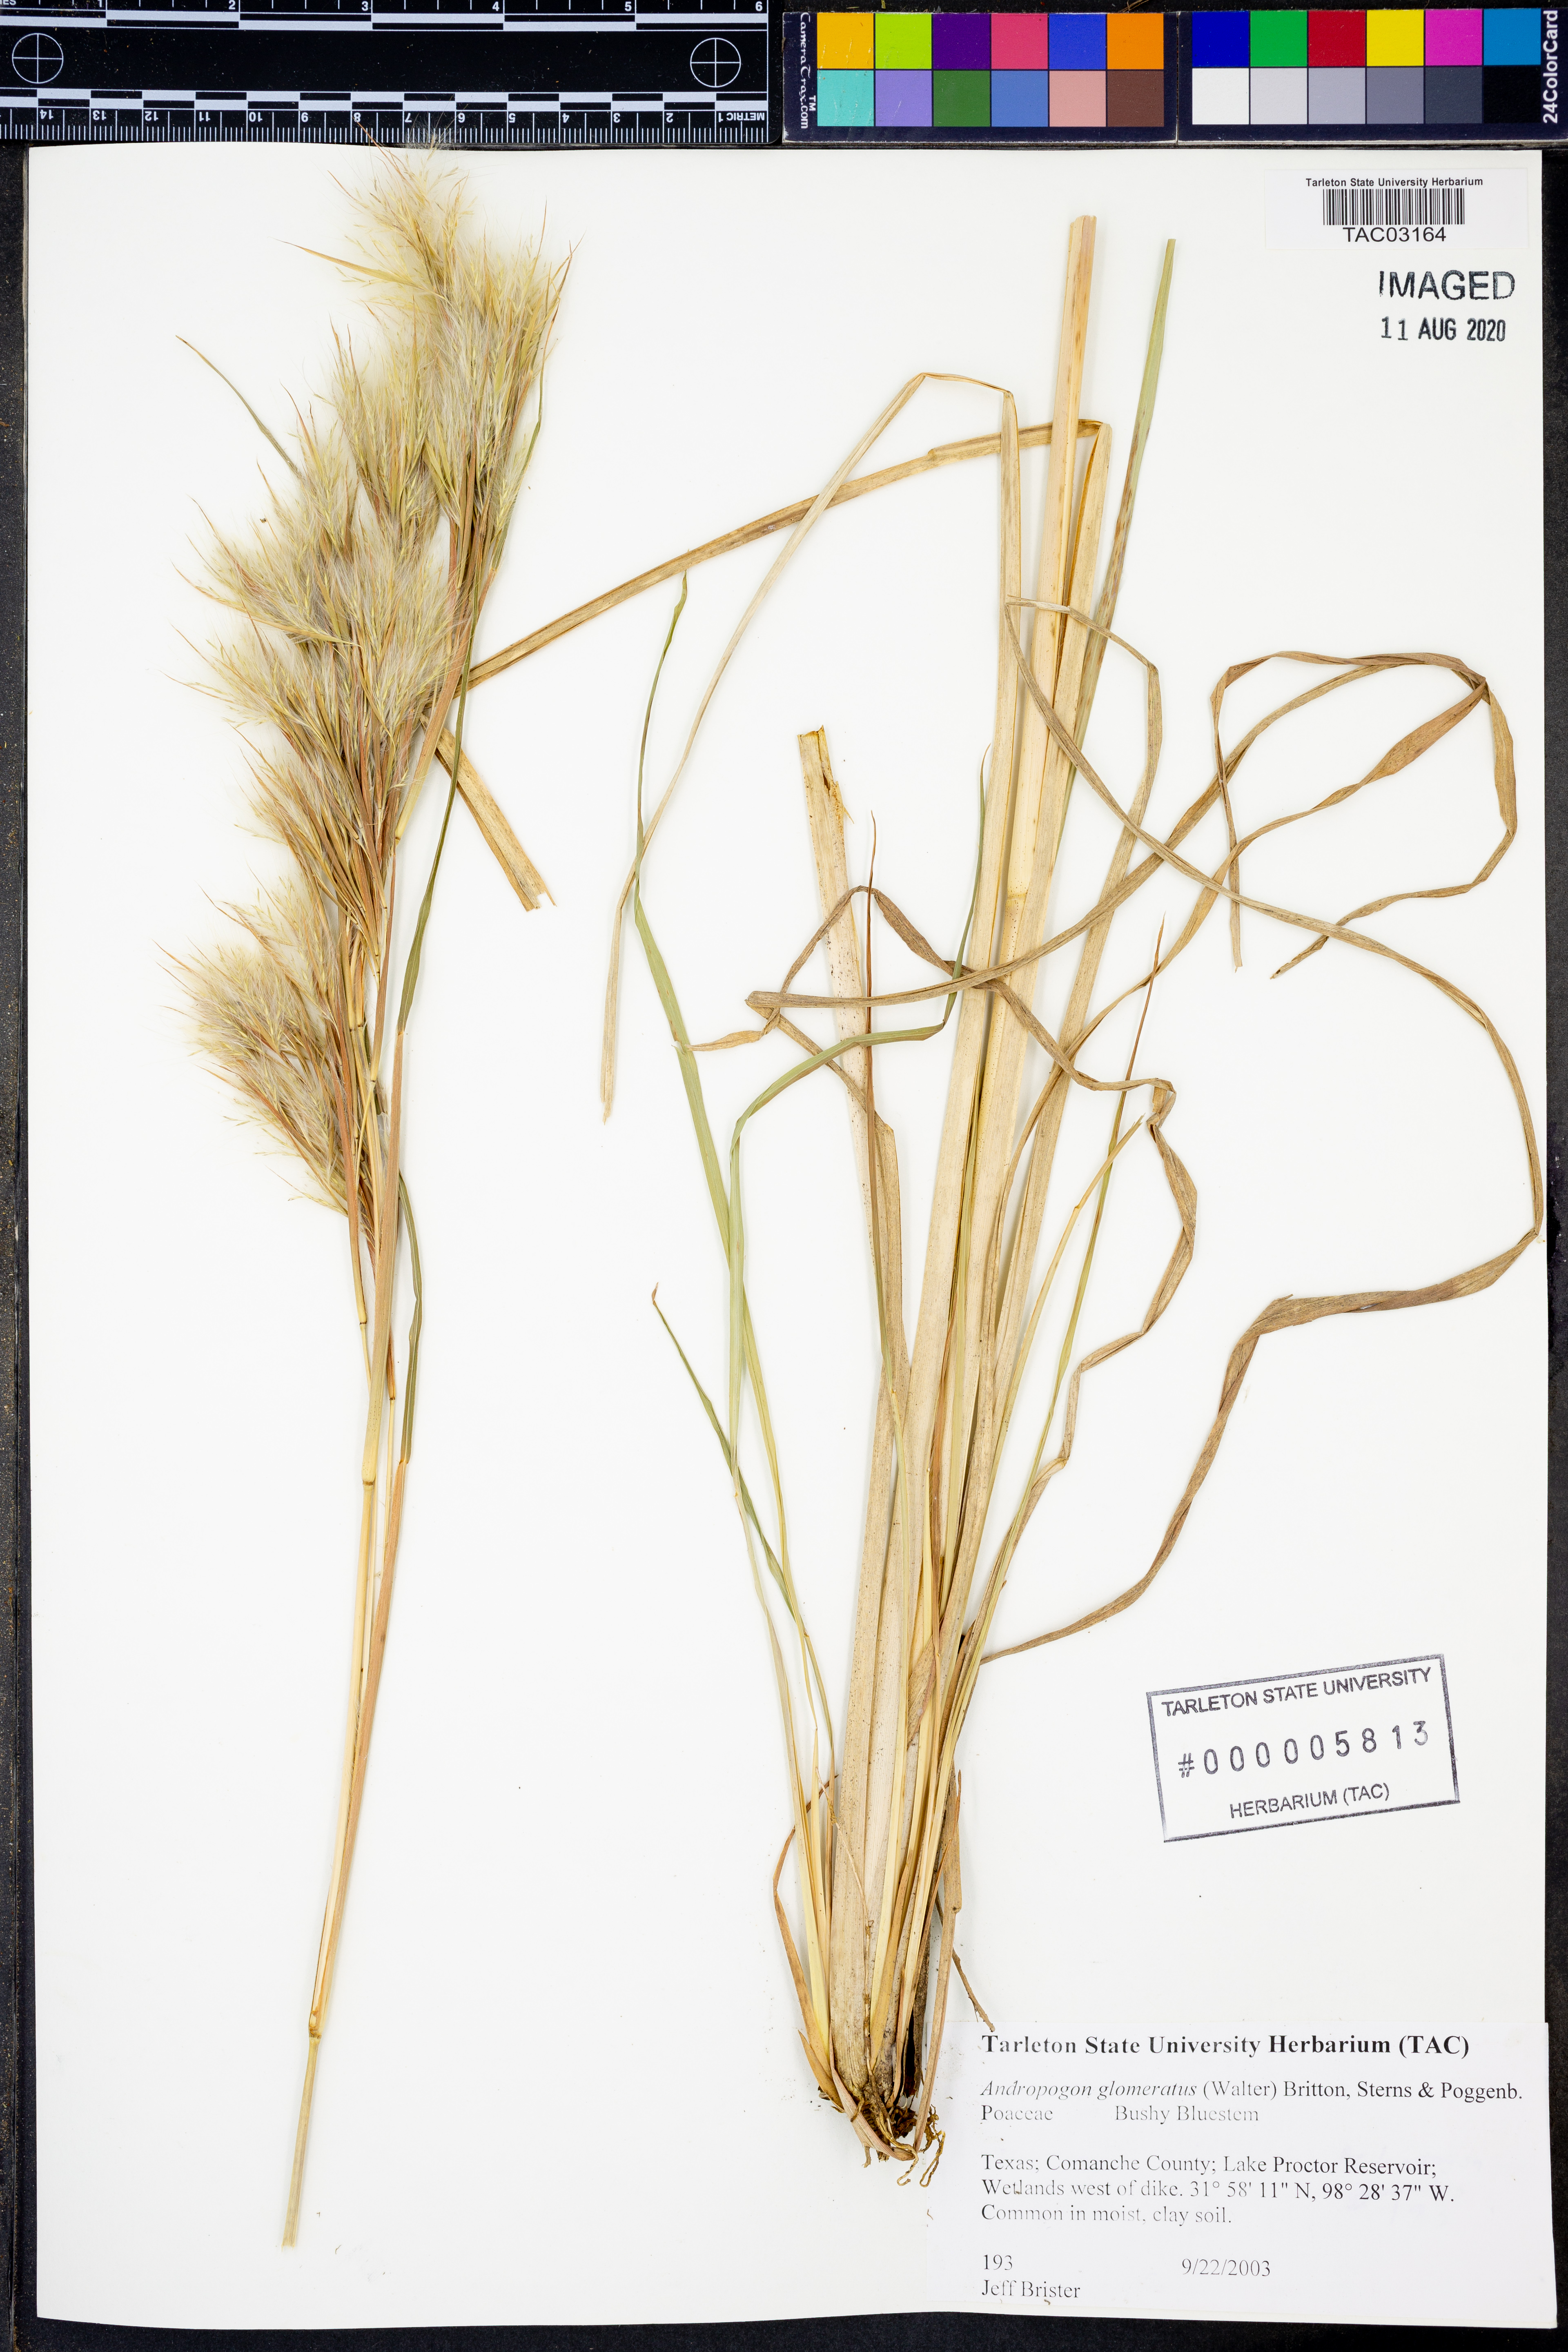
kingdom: Plantae
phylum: Tracheophyta
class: Liliopsida
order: Poales
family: Poaceae
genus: Andropogon
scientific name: Andropogon glomeratus
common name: Bushy beard grass
